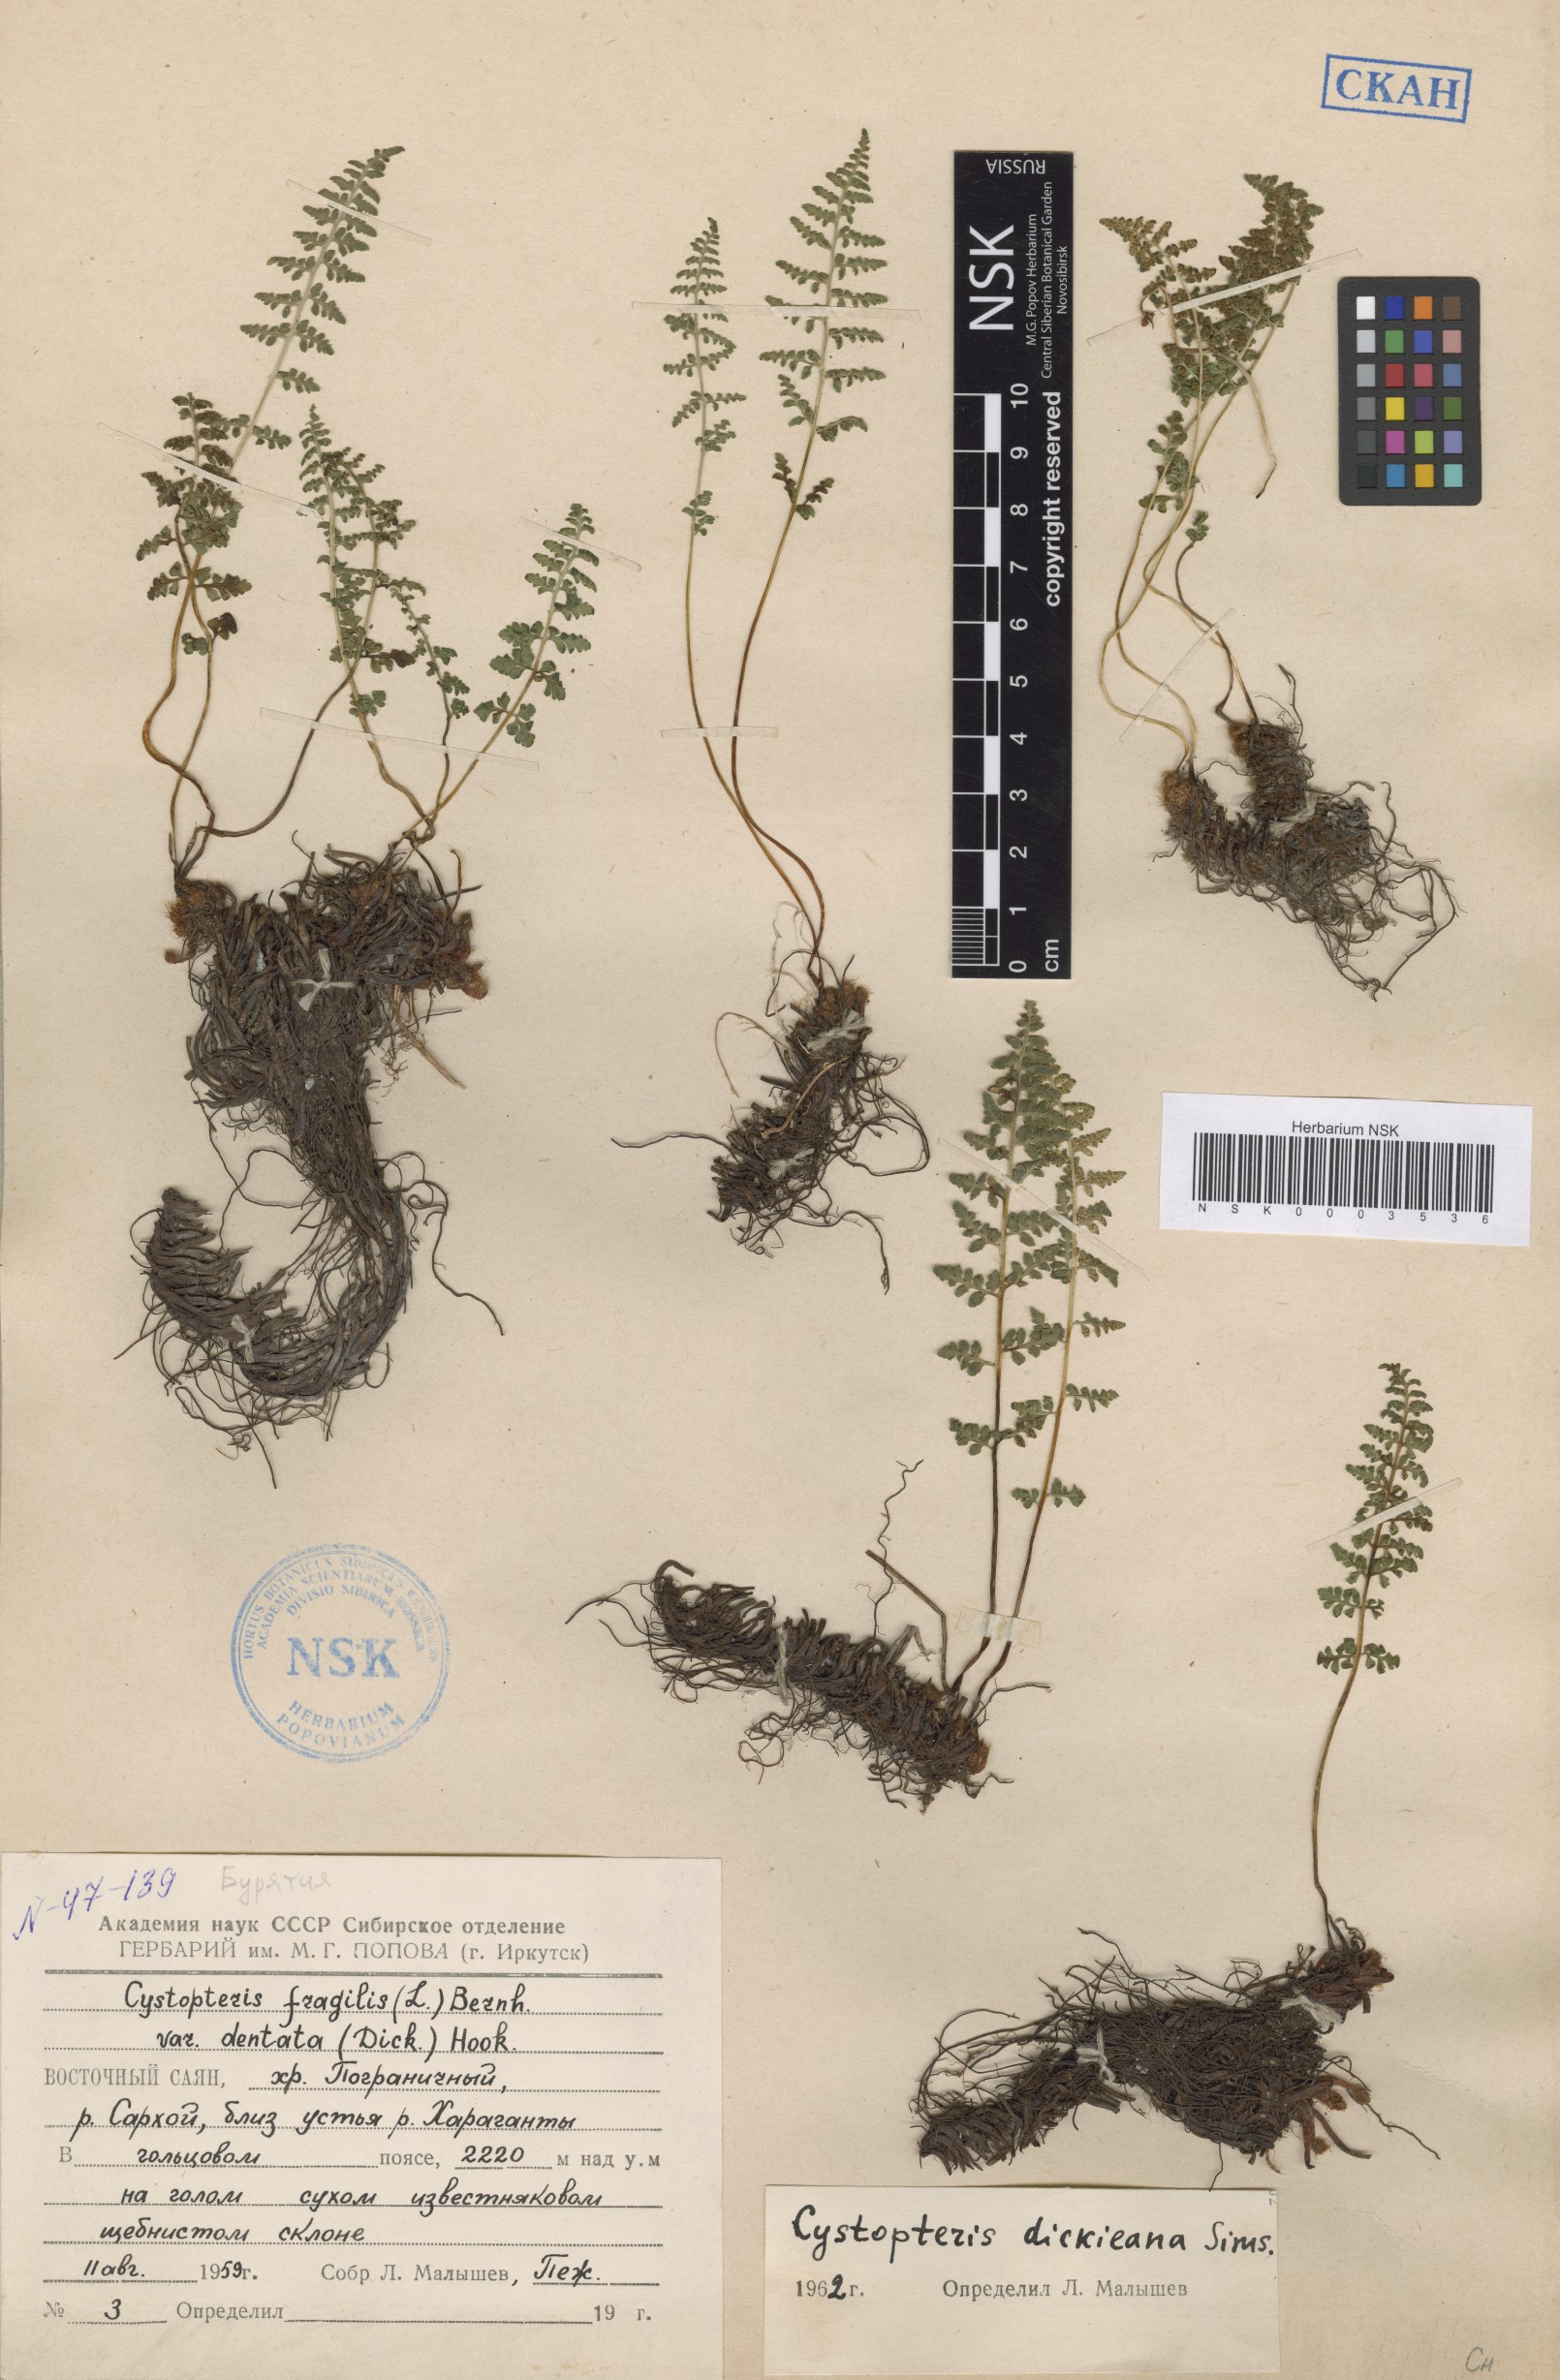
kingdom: Plantae
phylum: Tracheophyta
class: Polypodiopsida
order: Polypodiales
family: Cystopteridaceae
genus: Cystopteris
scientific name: Cystopteris dickieana
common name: Dickie's bladder-fern
